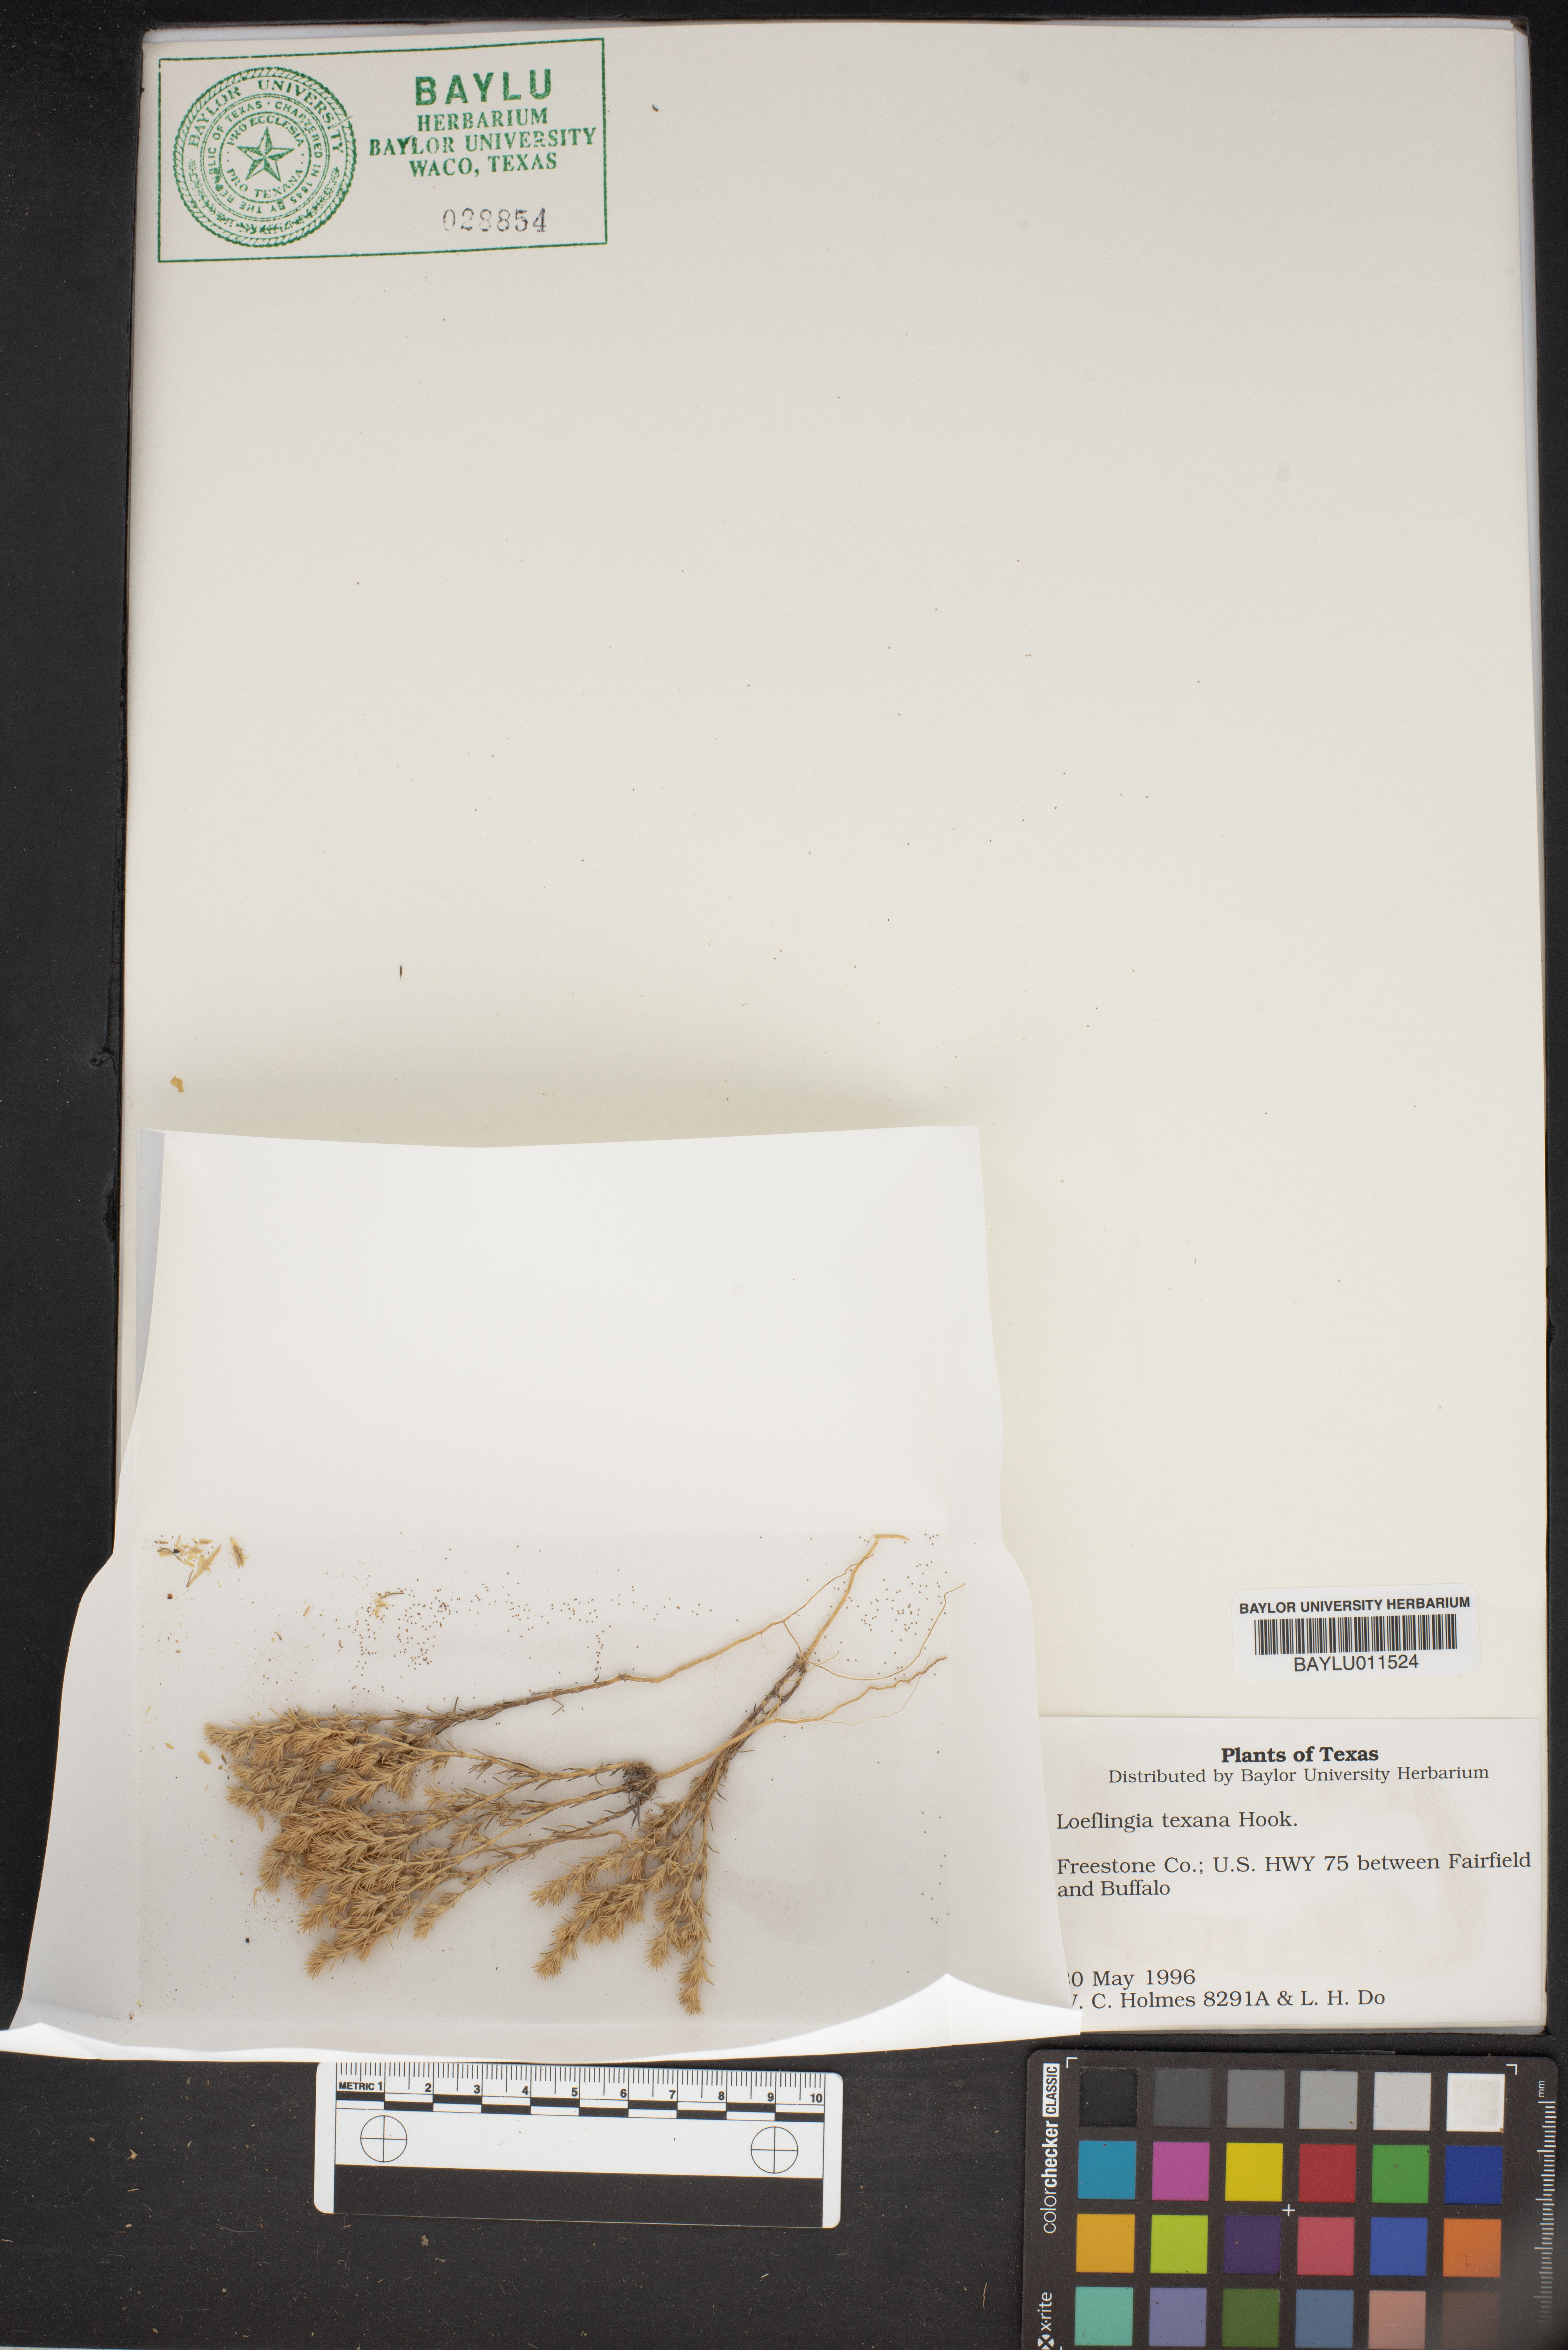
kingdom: Plantae
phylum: Tracheophyta
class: Magnoliopsida
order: Caryophyllales
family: Caryophyllaceae
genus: Loeflingia
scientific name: Loeflingia squarrosa
